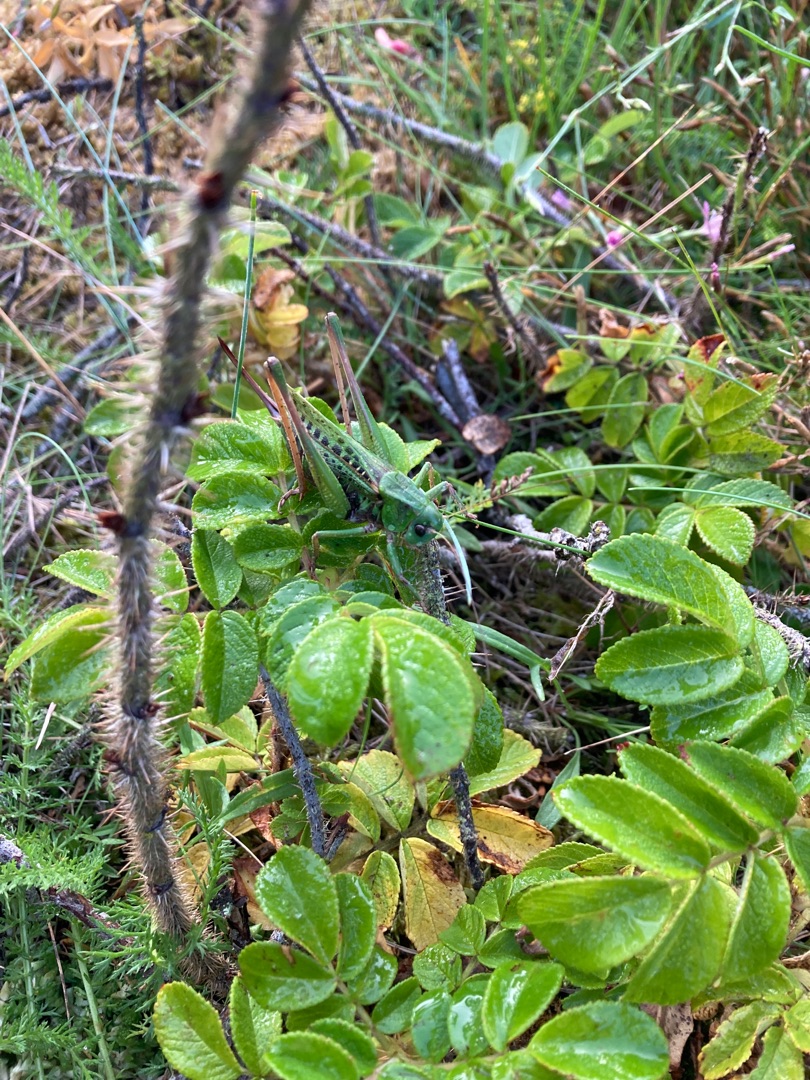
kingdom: Animalia
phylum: Arthropoda
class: Insecta
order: Orthoptera
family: Tettigoniidae
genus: Decticus
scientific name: Decticus verrucivorus
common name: Vortebider
